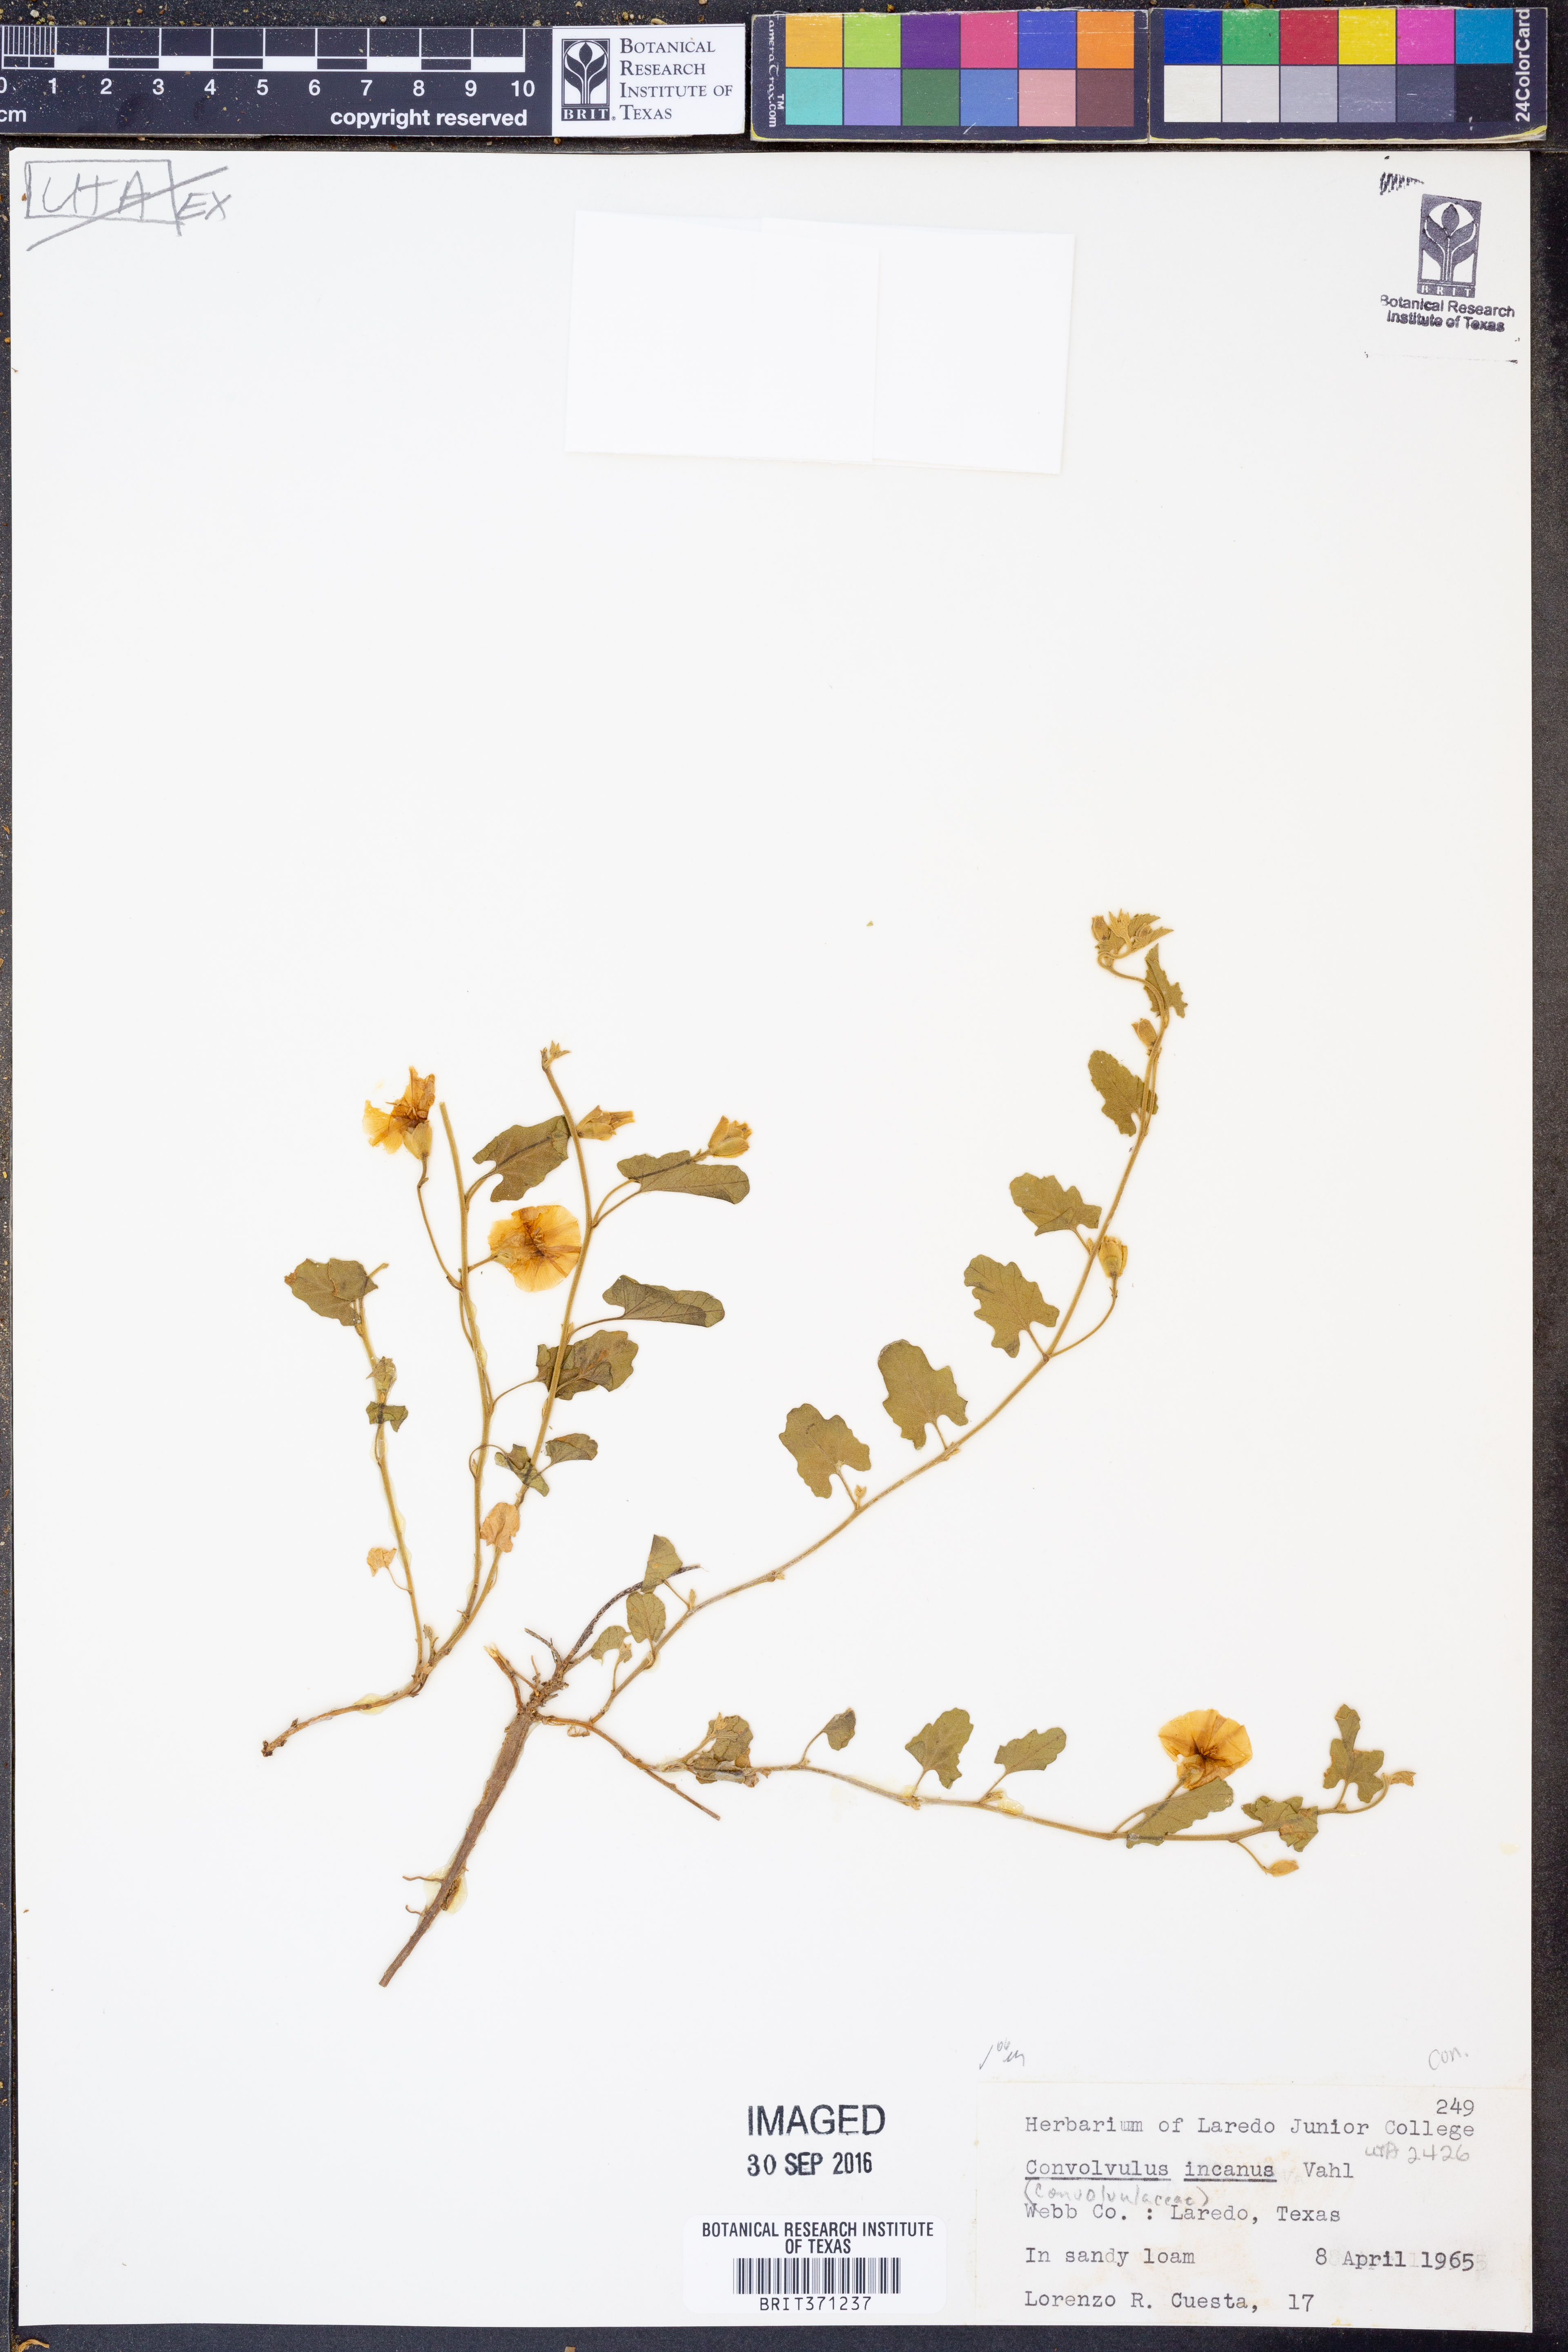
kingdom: Plantae
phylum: Tracheophyta
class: Magnoliopsida
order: Solanales
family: Convolvulaceae
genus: Convolvulus
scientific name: Convolvulus hermanniae
